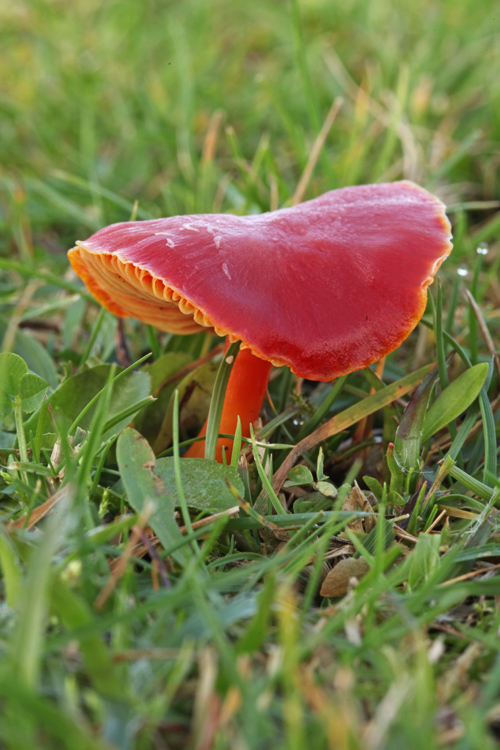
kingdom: Fungi
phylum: Basidiomycota
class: Agaricomycetes
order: Agaricales
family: Hygrophoraceae
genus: Hygrocybe
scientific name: Hygrocybe coccinea
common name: cinnober-vokshat
